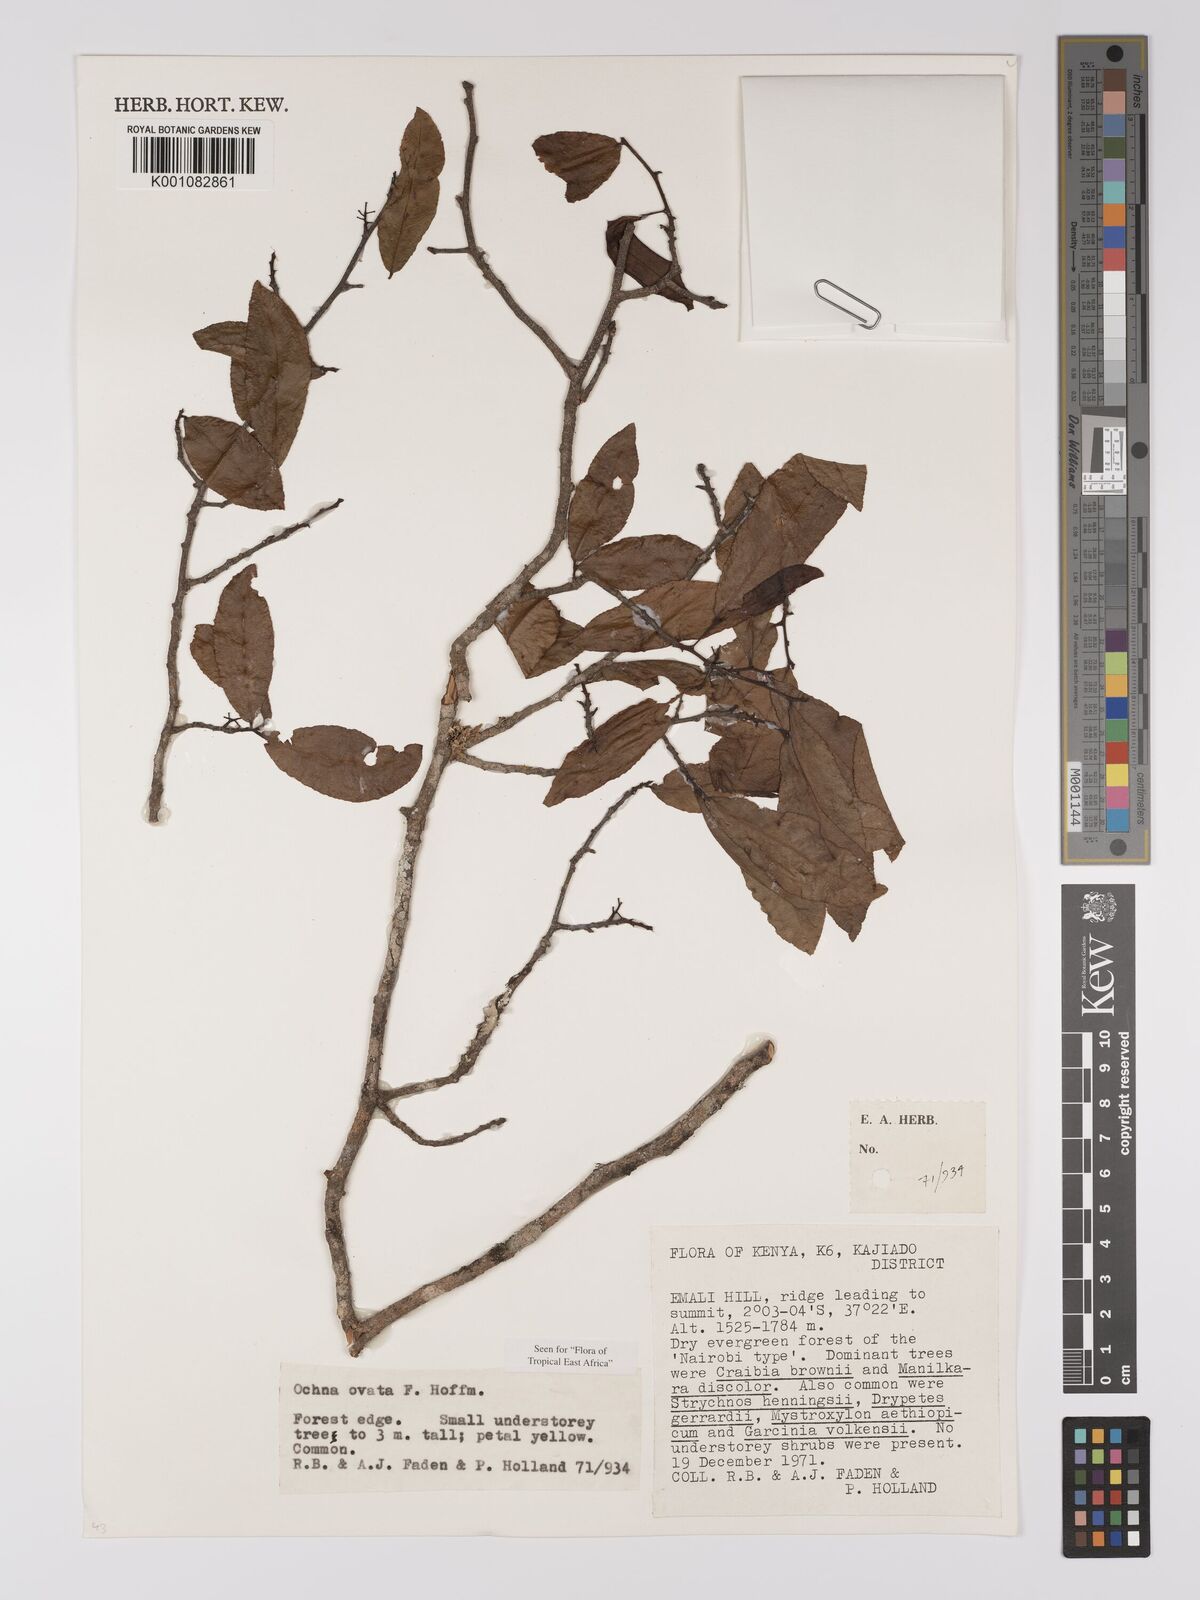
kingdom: Plantae
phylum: Tracheophyta
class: Magnoliopsida
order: Malpighiales
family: Ochnaceae
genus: Ochna
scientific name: Ochna ovata
